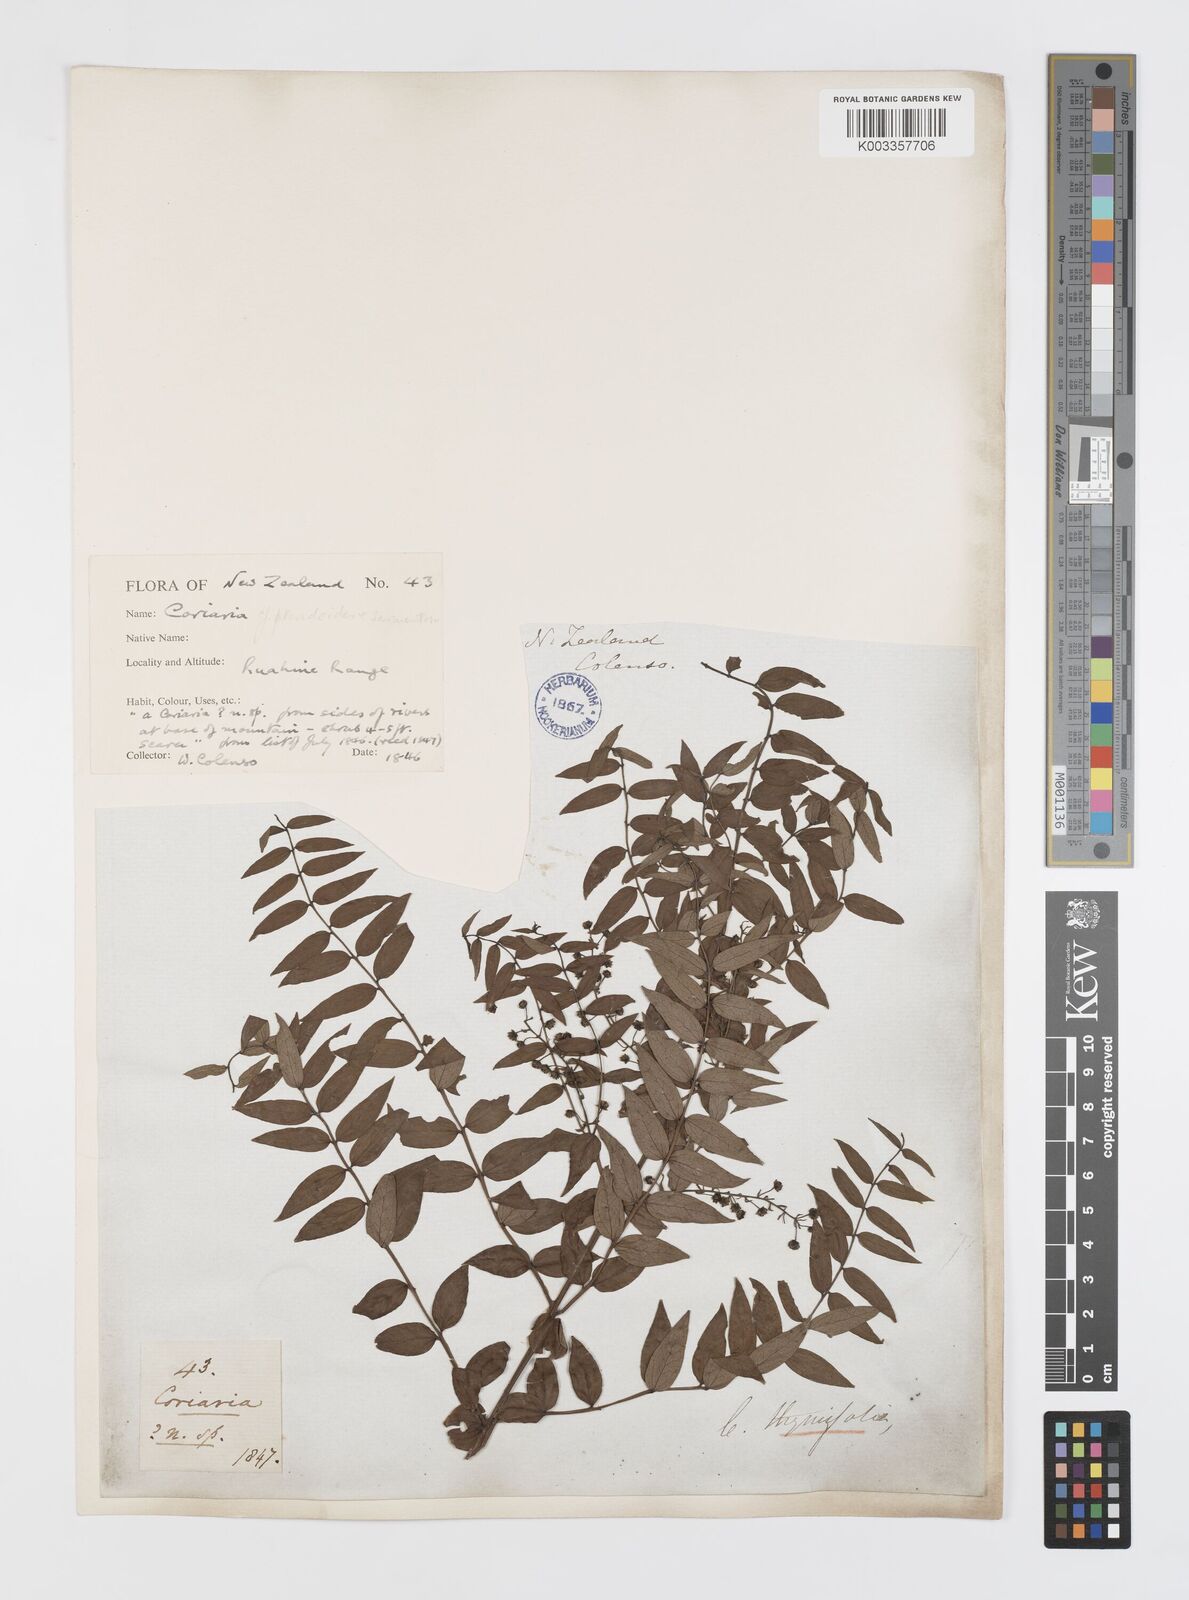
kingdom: Plantae
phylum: Tracheophyta
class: Magnoliopsida
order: Cucurbitales
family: Coriariaceae
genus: Coriaria
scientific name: Coriaria pteridoides
